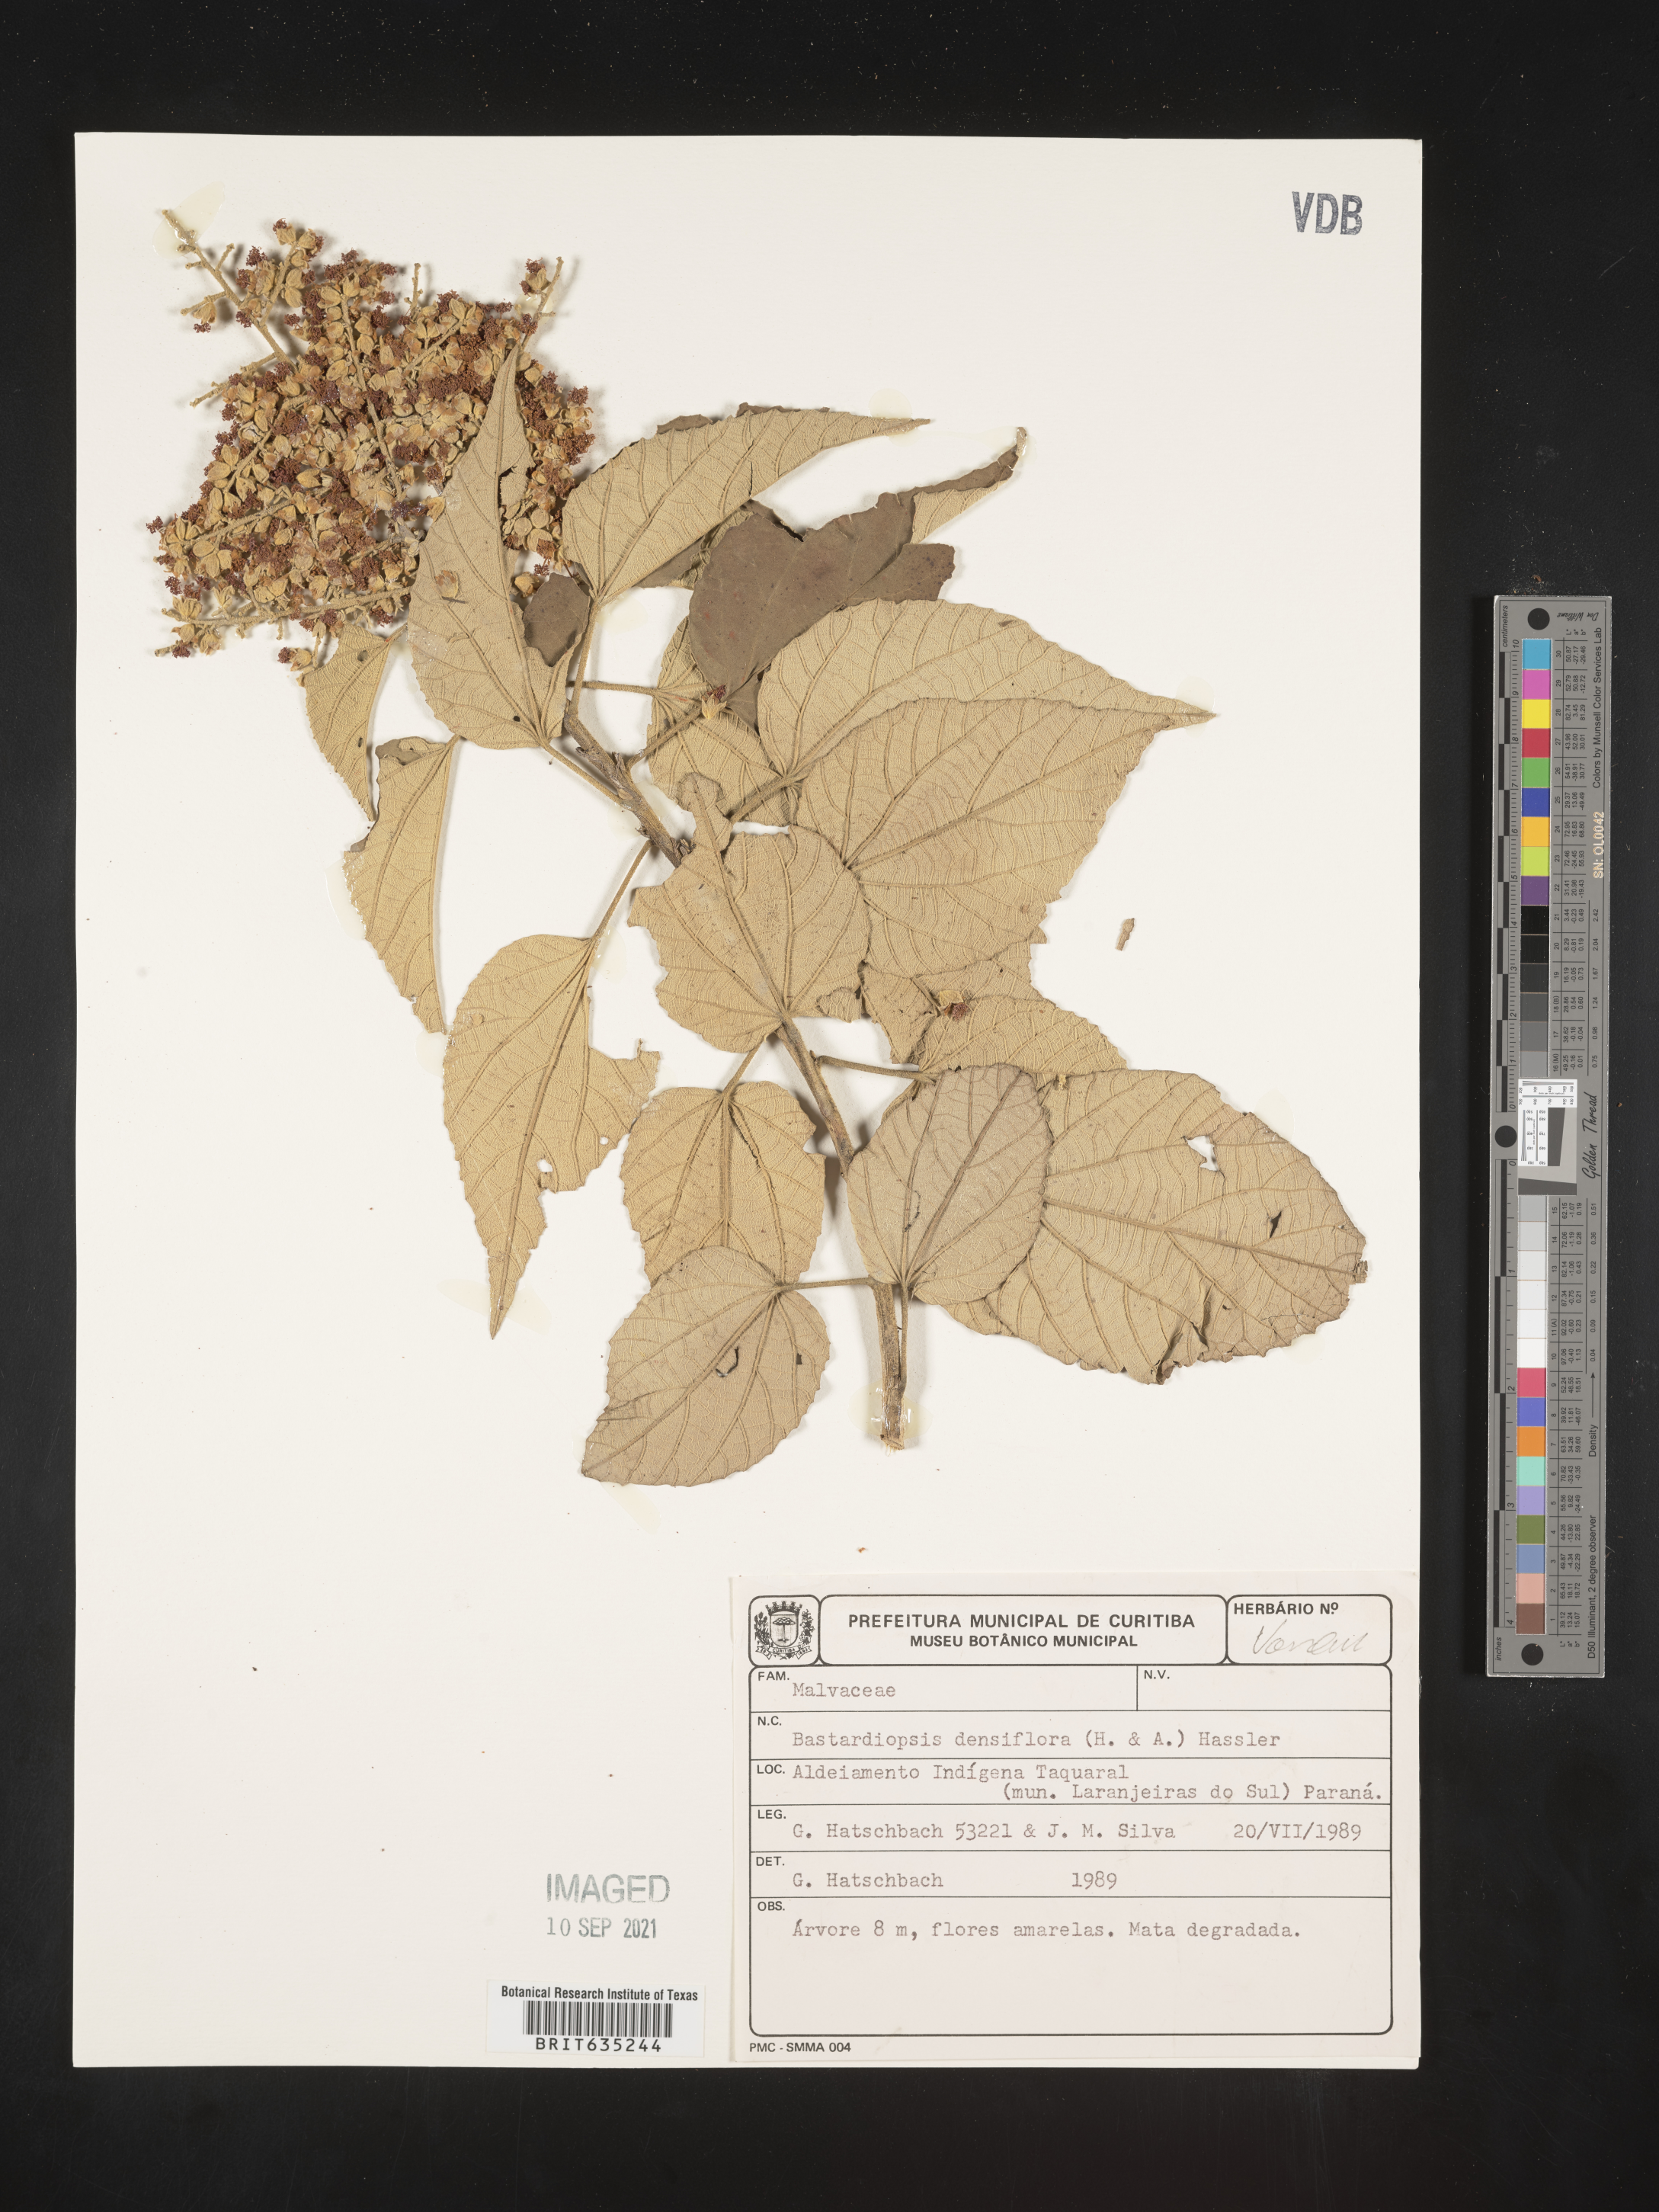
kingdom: Plantae
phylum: Tracheophyta
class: Magnoliopsida
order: Malvales
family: Malvaceae
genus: Bastardiopsis
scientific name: Bastardiopsis
